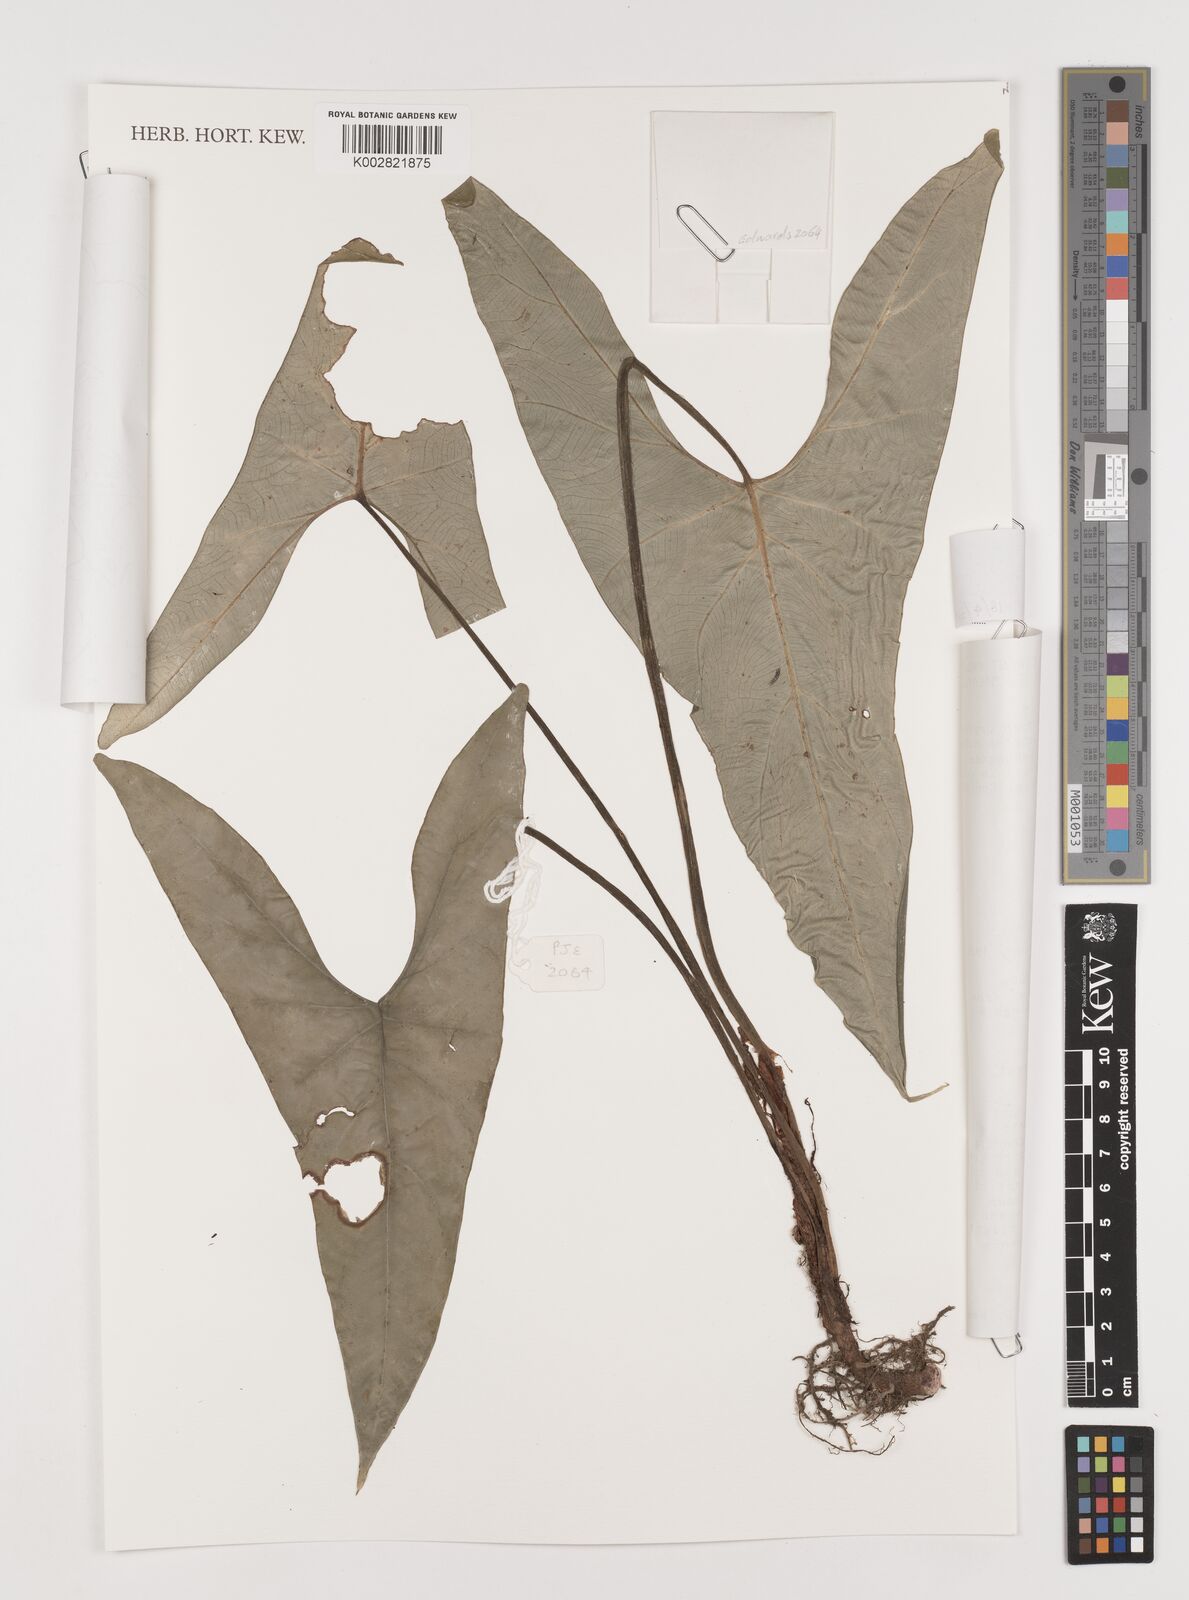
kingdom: Plantae
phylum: Tracheophyta
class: Liliopsida
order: Alismatales
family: Araceae
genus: Alocasia
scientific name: Alocasia
